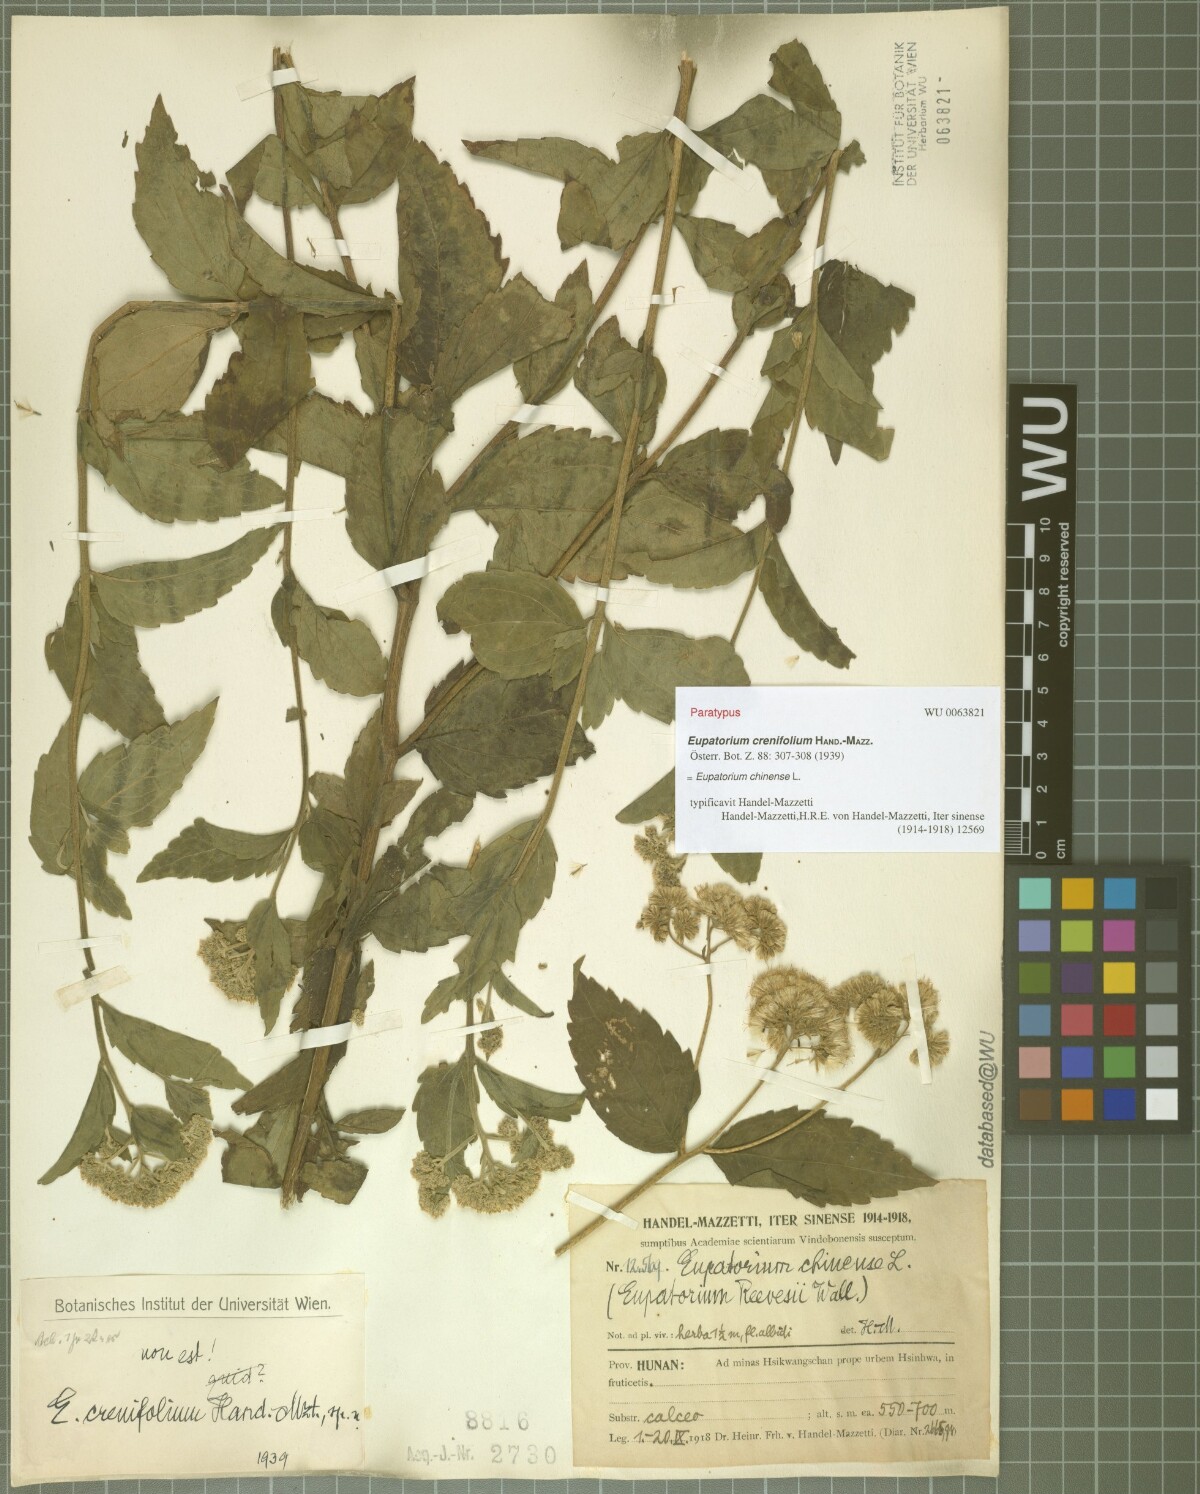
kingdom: Plantae
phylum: Tracheophyta
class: Magnoliopsida
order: Asterales
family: Asteraceae
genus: Eupatorium
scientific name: Eupatorium crenifolium
